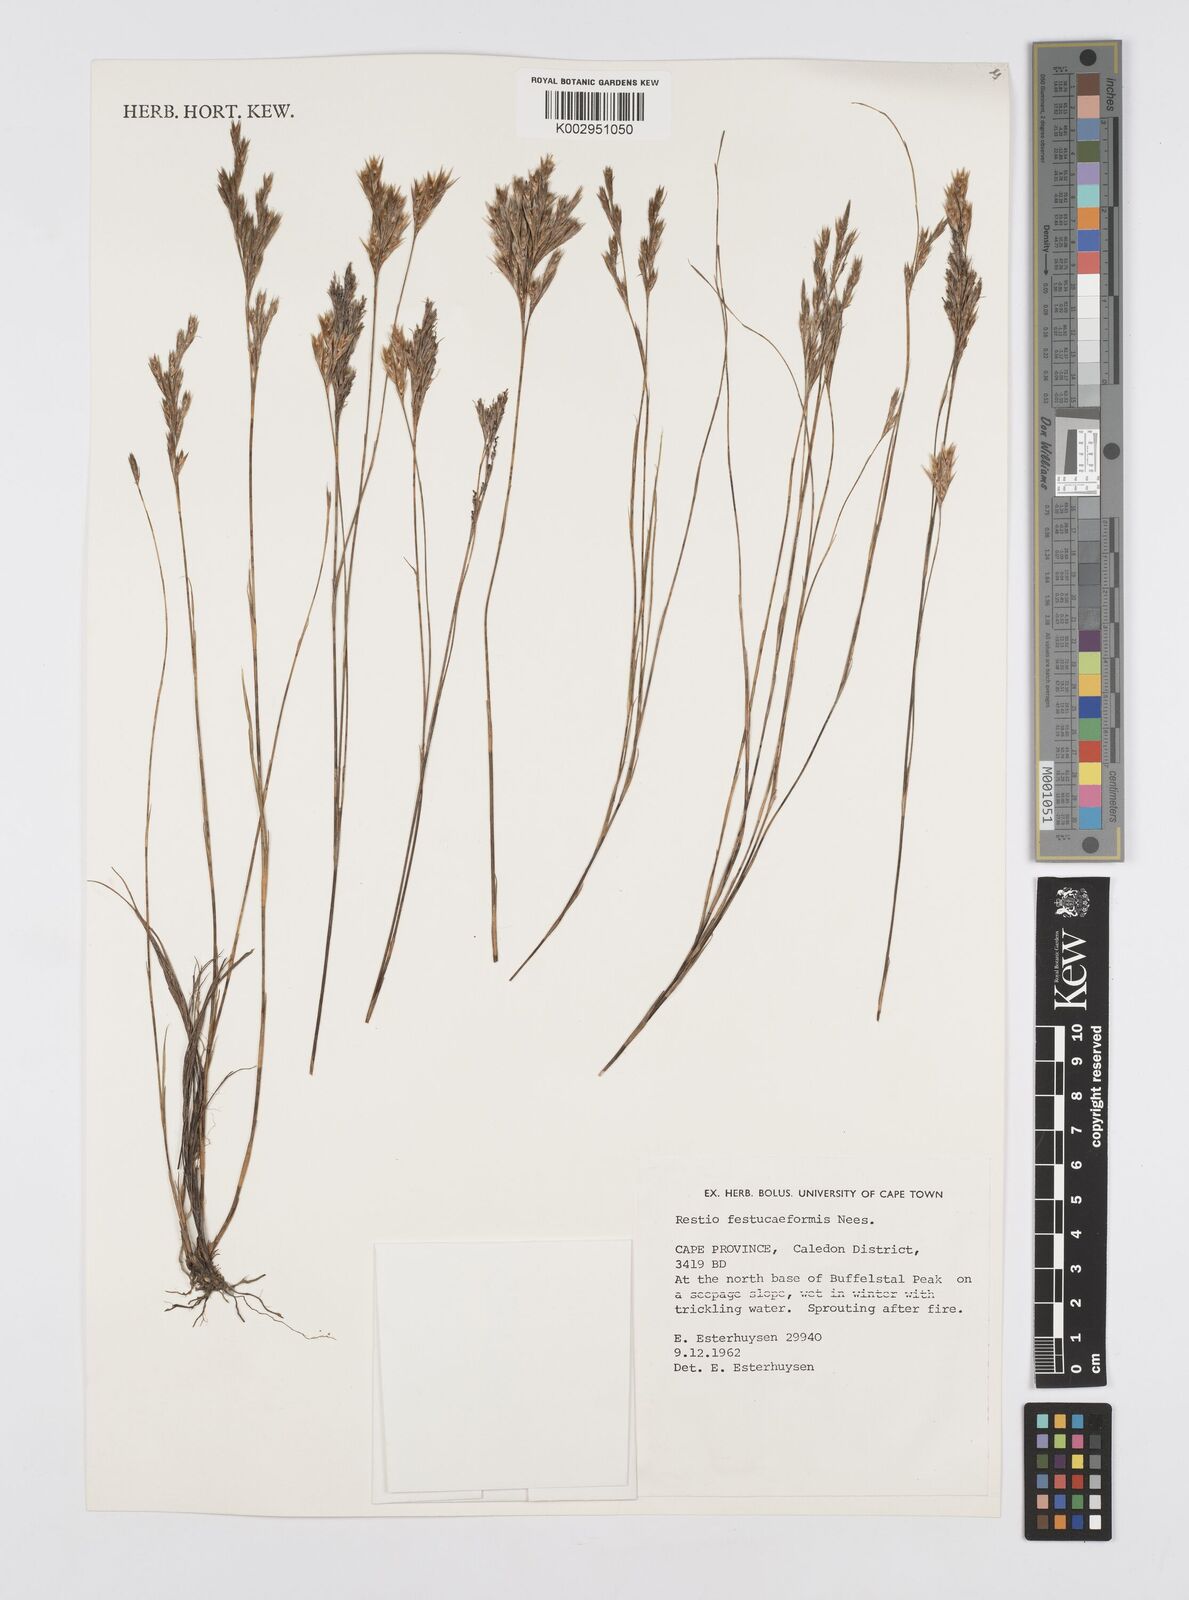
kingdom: Plantae
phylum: Tracheophyta
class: Liliopsida
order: Poales
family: Restionaceae
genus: Restio
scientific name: Restio festuciformis
